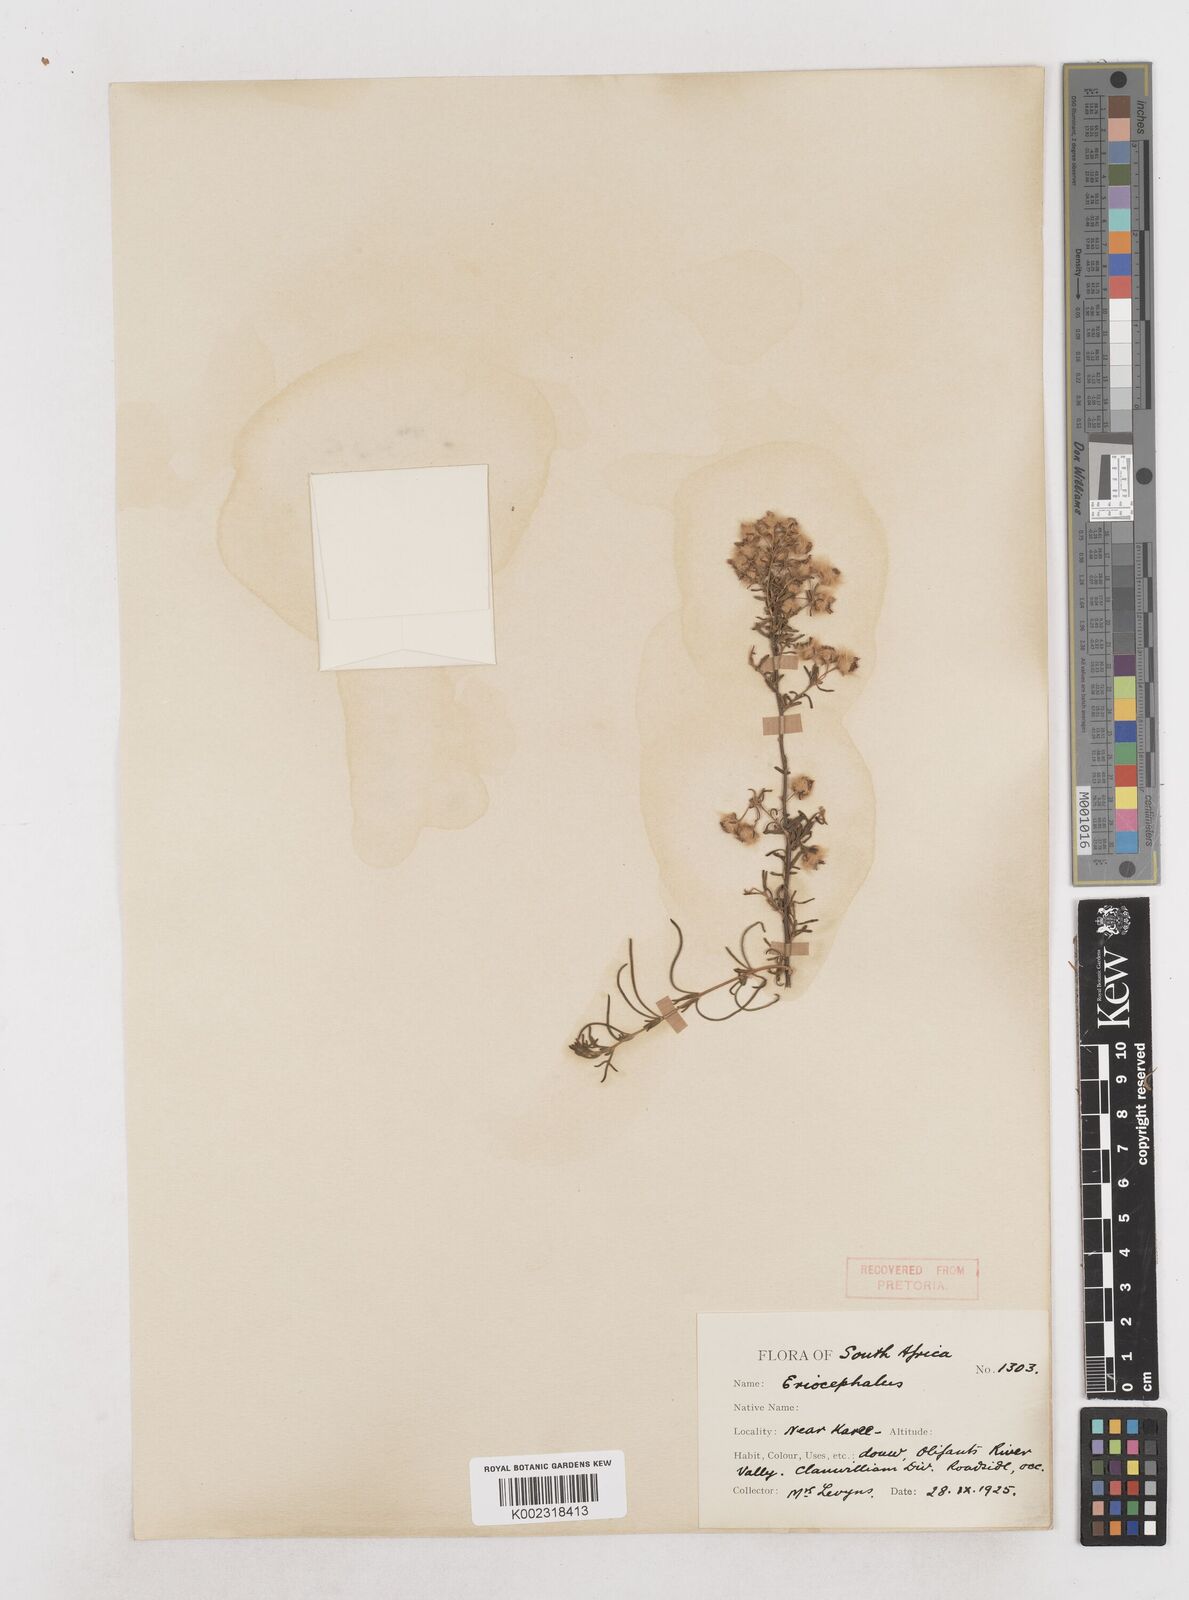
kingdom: Plantae
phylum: Tracheophyta
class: Magnoliopsida
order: Asterales
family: Asteraceae
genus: Eriocephalus
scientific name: Eriocephalus
